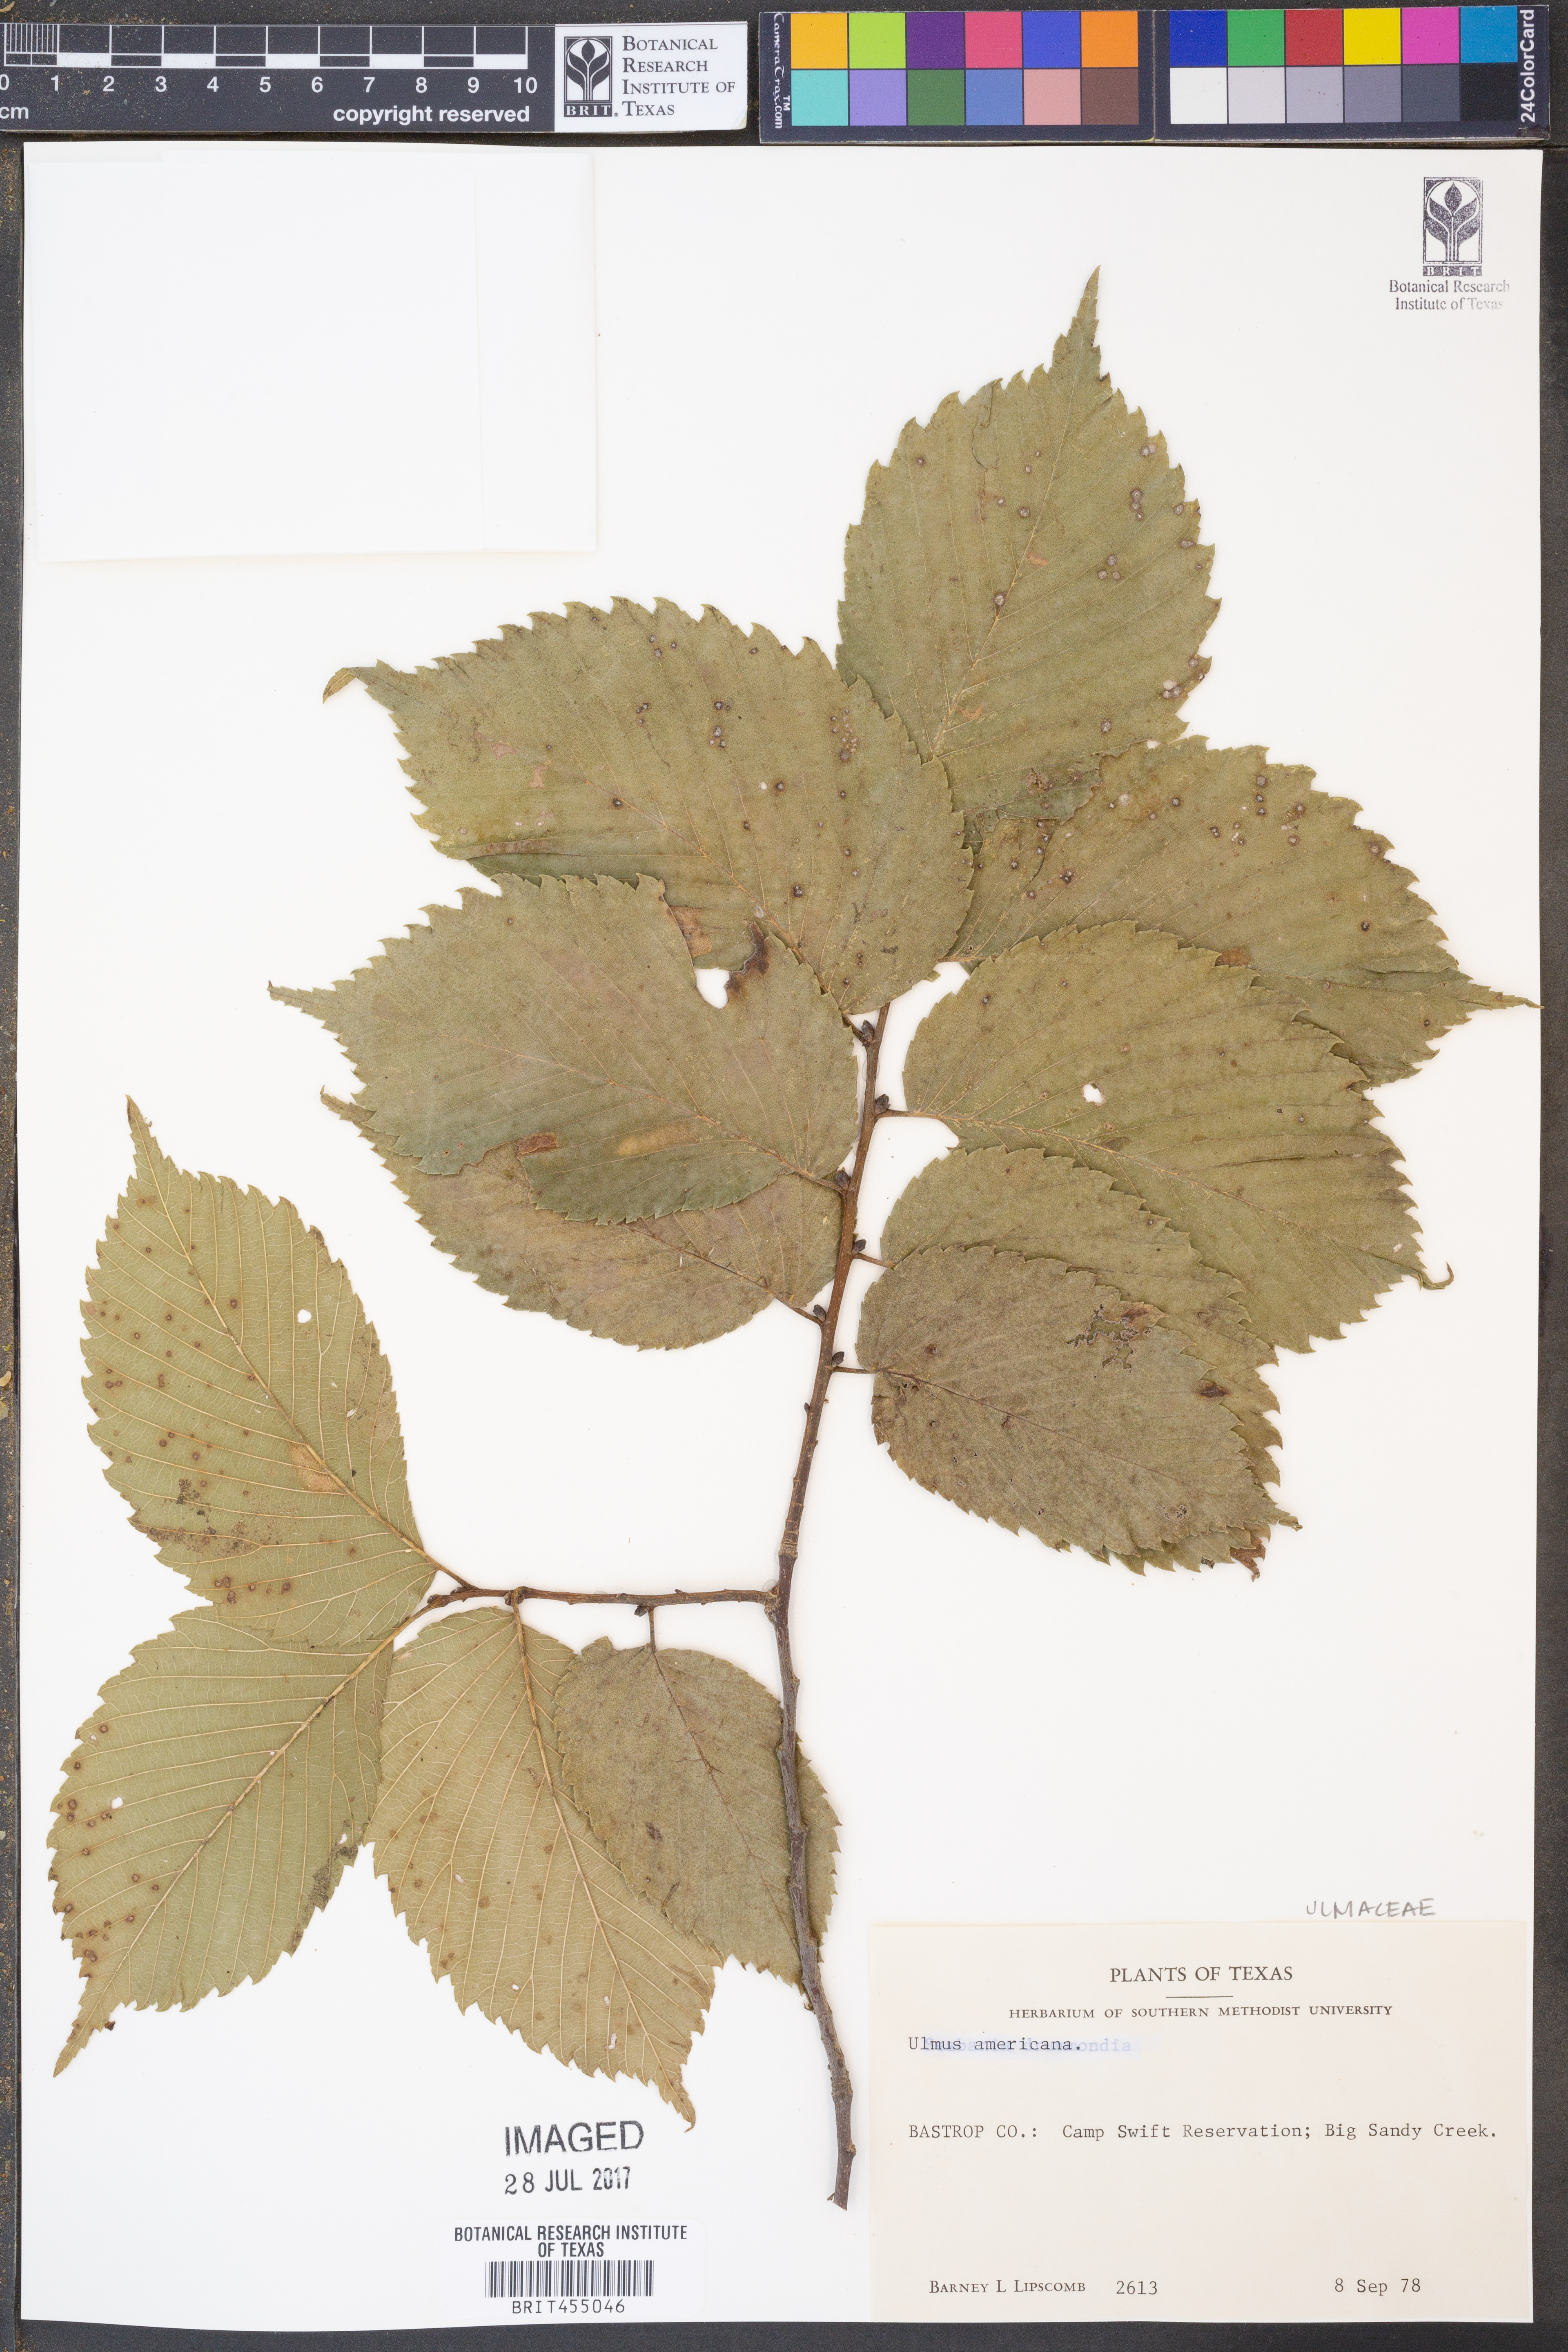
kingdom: Plantae
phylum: Tracheophyta
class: Magnoliopsida
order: Rosales
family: Ulmaceae
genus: Ulmus
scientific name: Ulmus americana
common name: American elm
